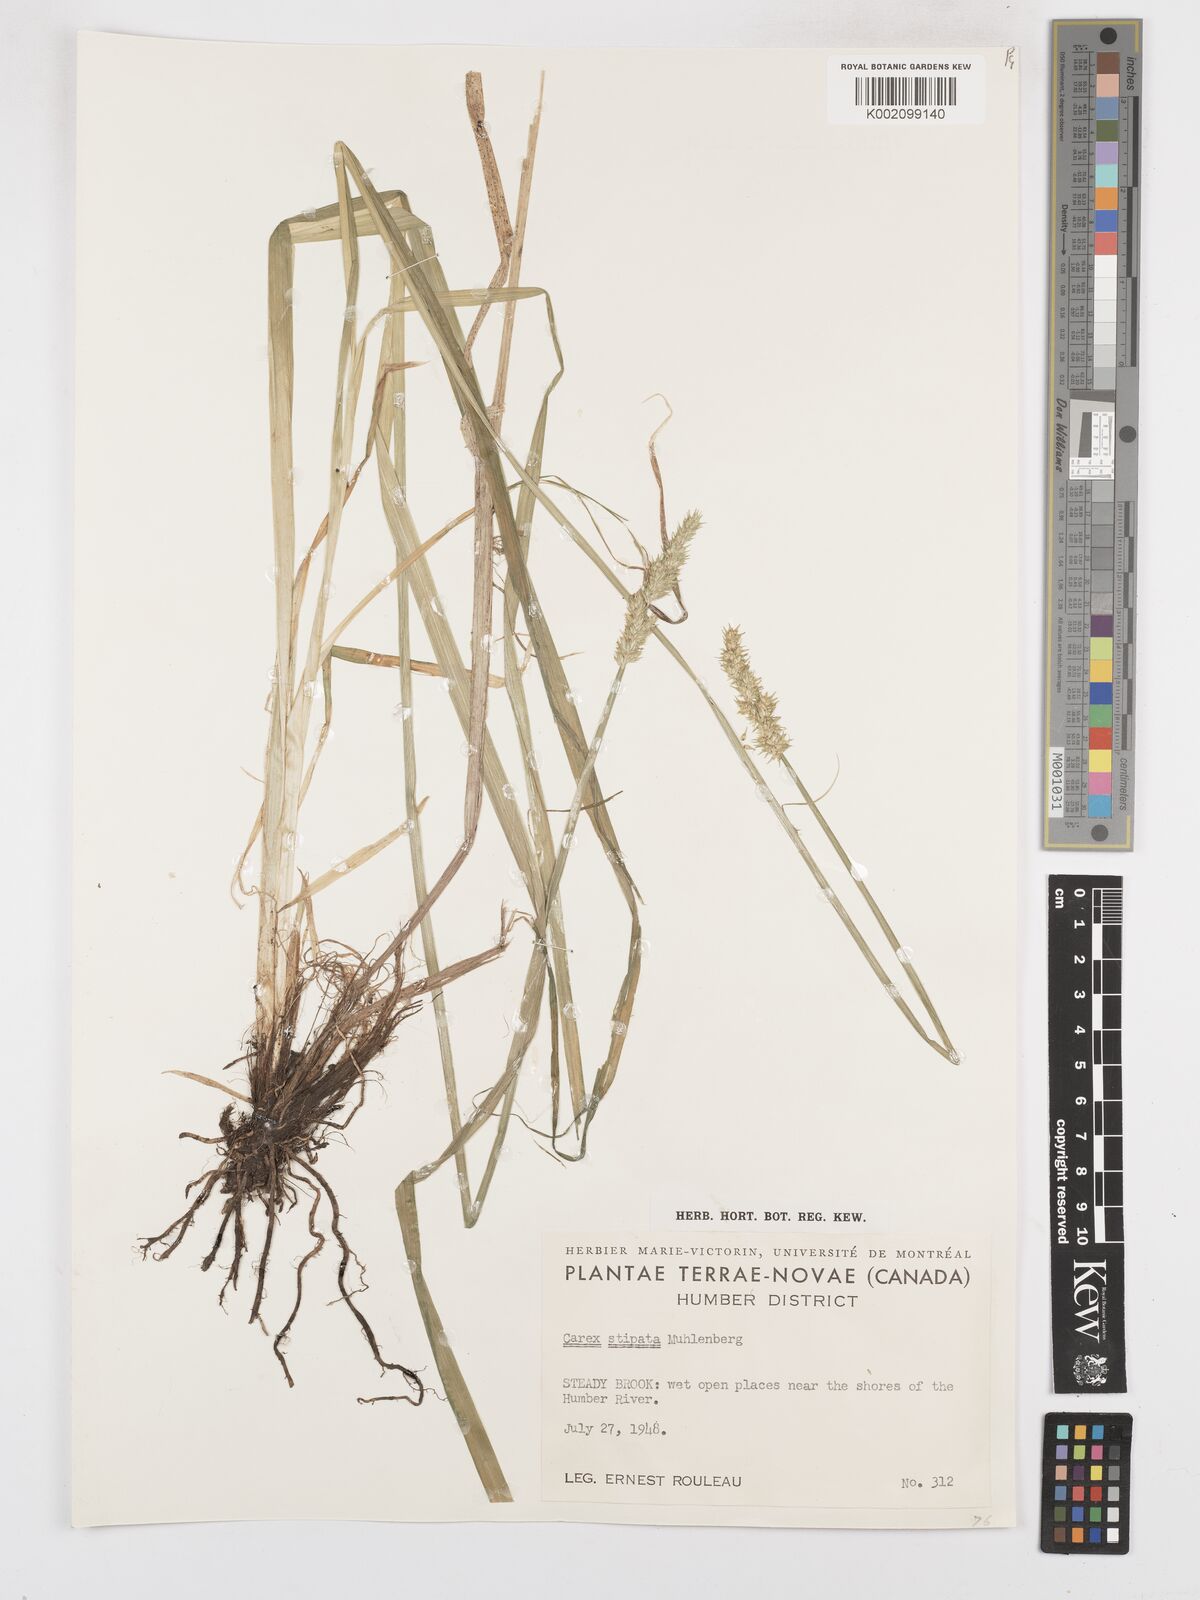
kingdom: Plantae
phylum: Tracheophyta
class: Liliopsida
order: Poales
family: Cyperaceae
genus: Carex
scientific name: Carex stipata
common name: Awl-fruited sedge
